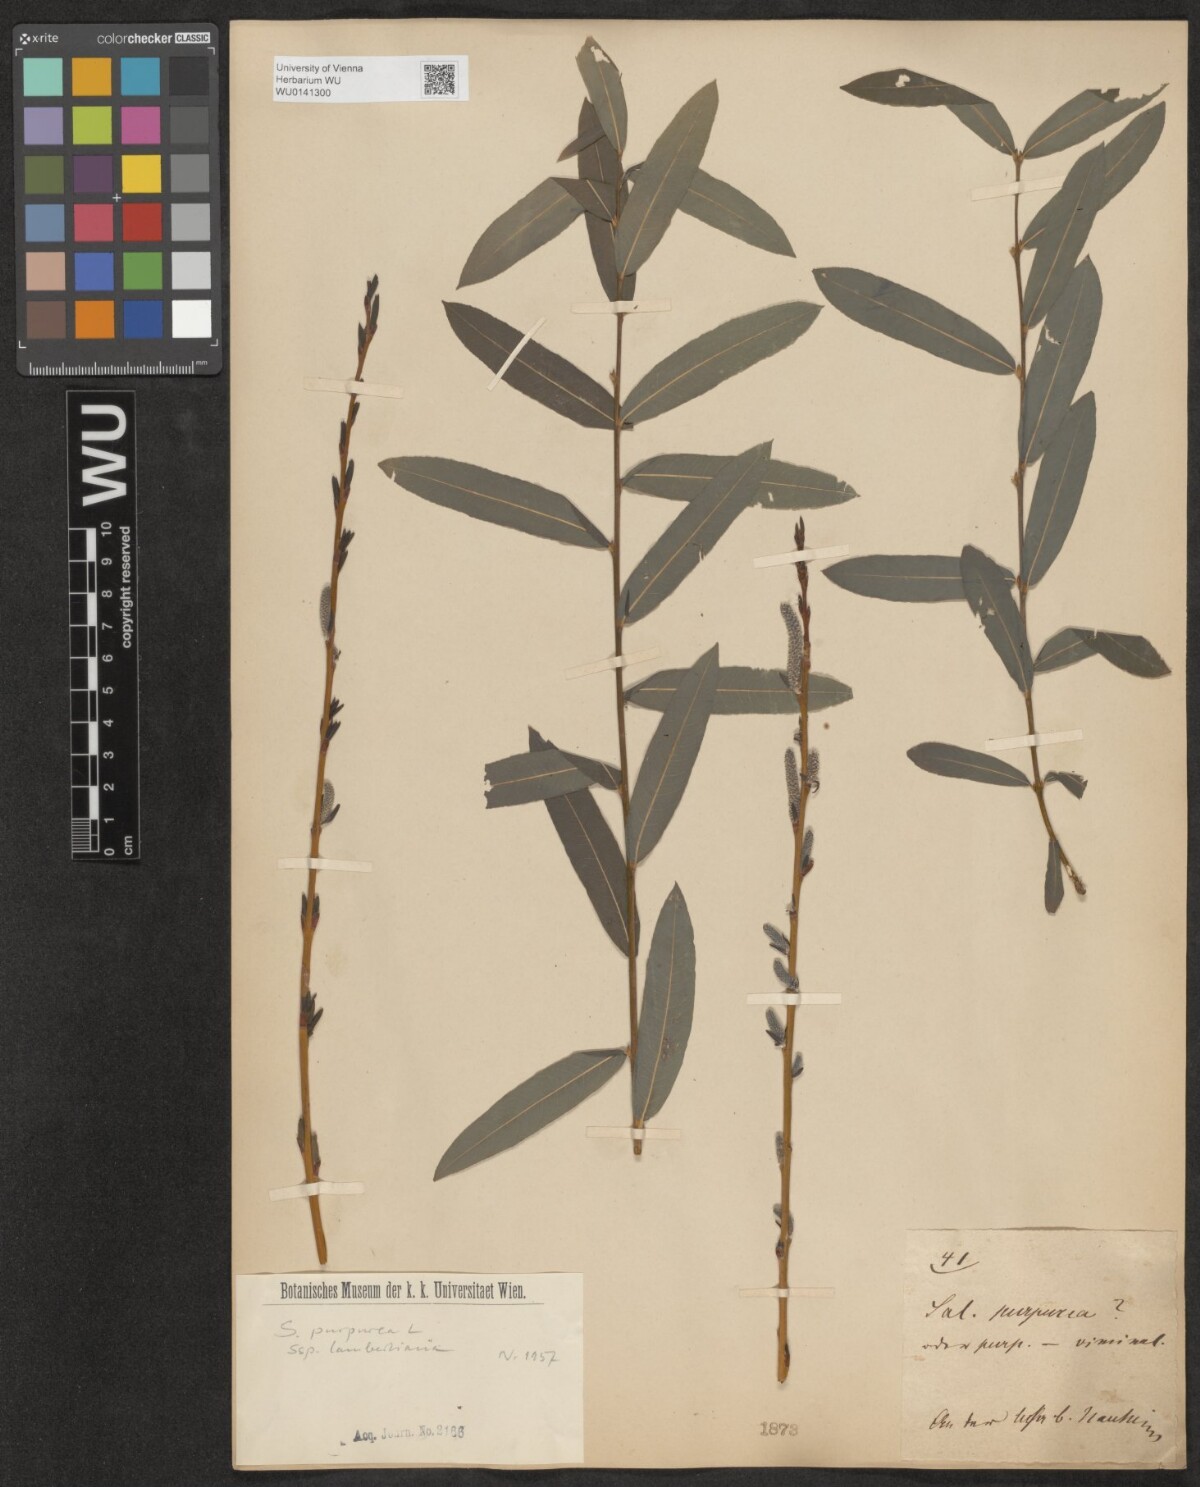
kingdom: Plantae
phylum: Tracheophyta
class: Magnoliopsida
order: Malpighiales
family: Salicaceae
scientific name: Salicaceae
